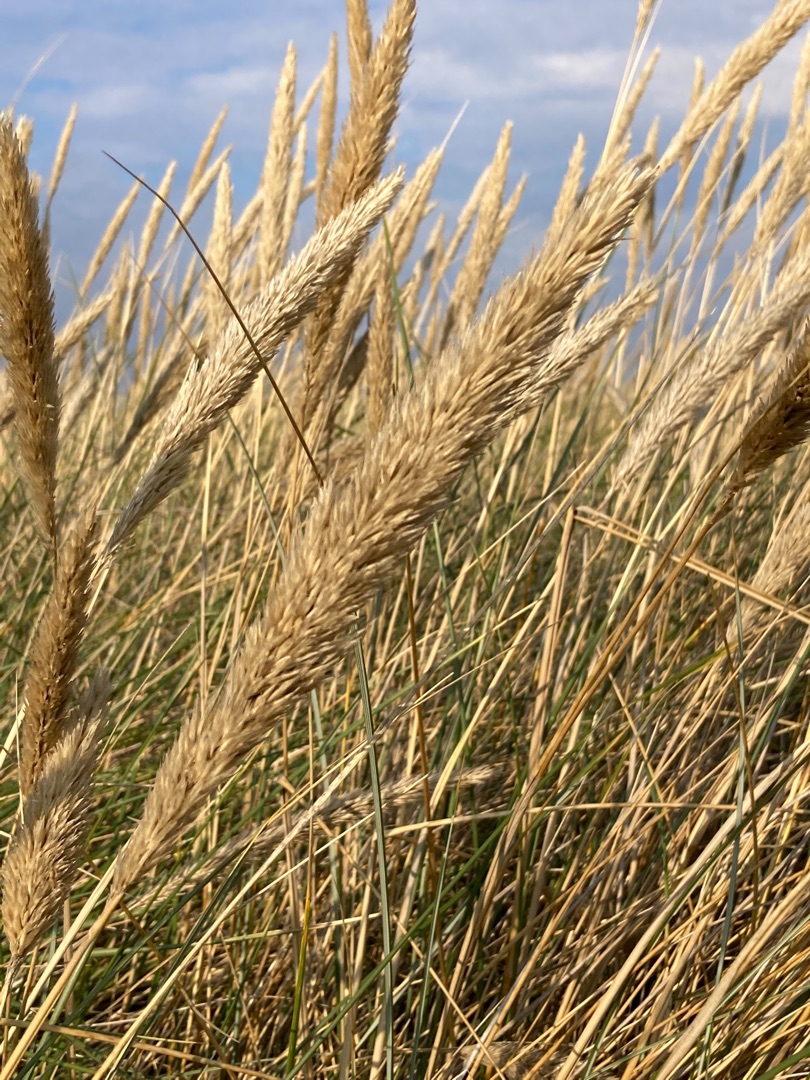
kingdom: Plantae
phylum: Tracheophyta
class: Liliopsida
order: Poales
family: Poaceae
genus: Calamagrostis
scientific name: Calamagrostis arenaria
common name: Sand-hjælme
